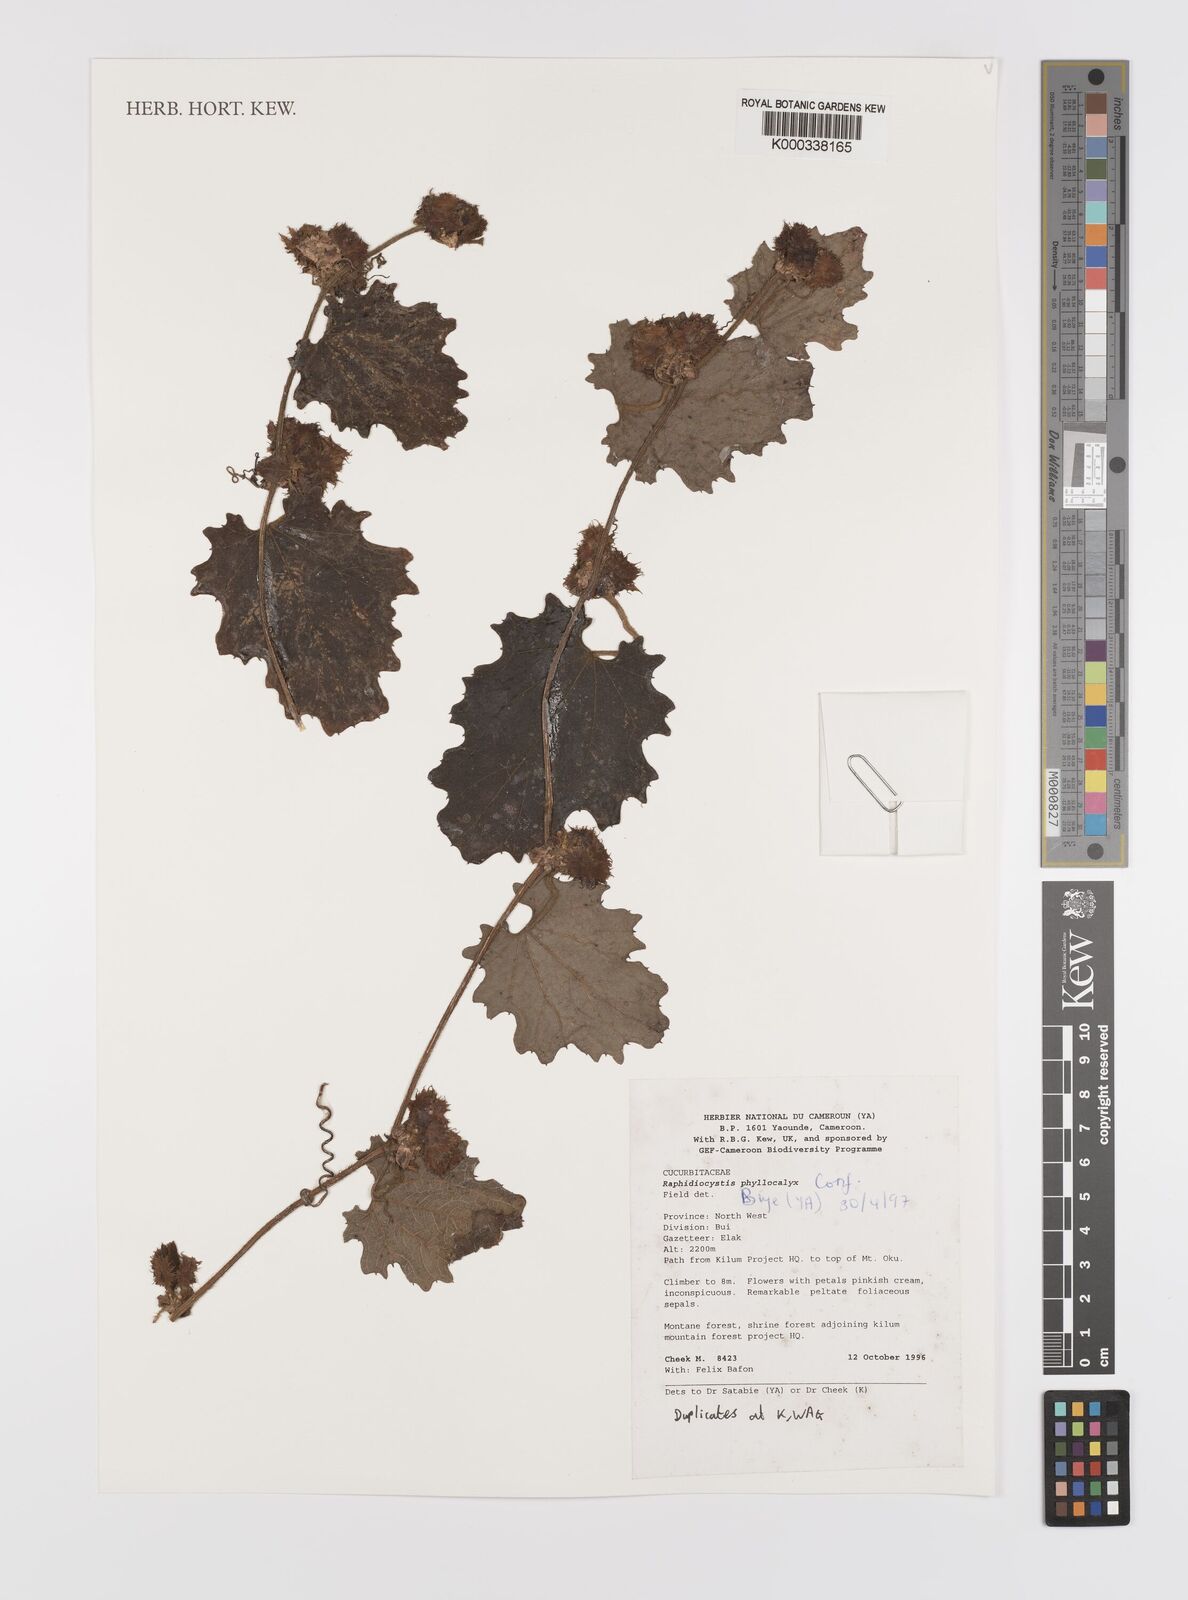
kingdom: Plantae
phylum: Tracheophyta
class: Magnoliopsida
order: Cucurbitales
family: Cucurbitaceae
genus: Raphidiocystis
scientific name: Raphidiocystis phyllocalyx
